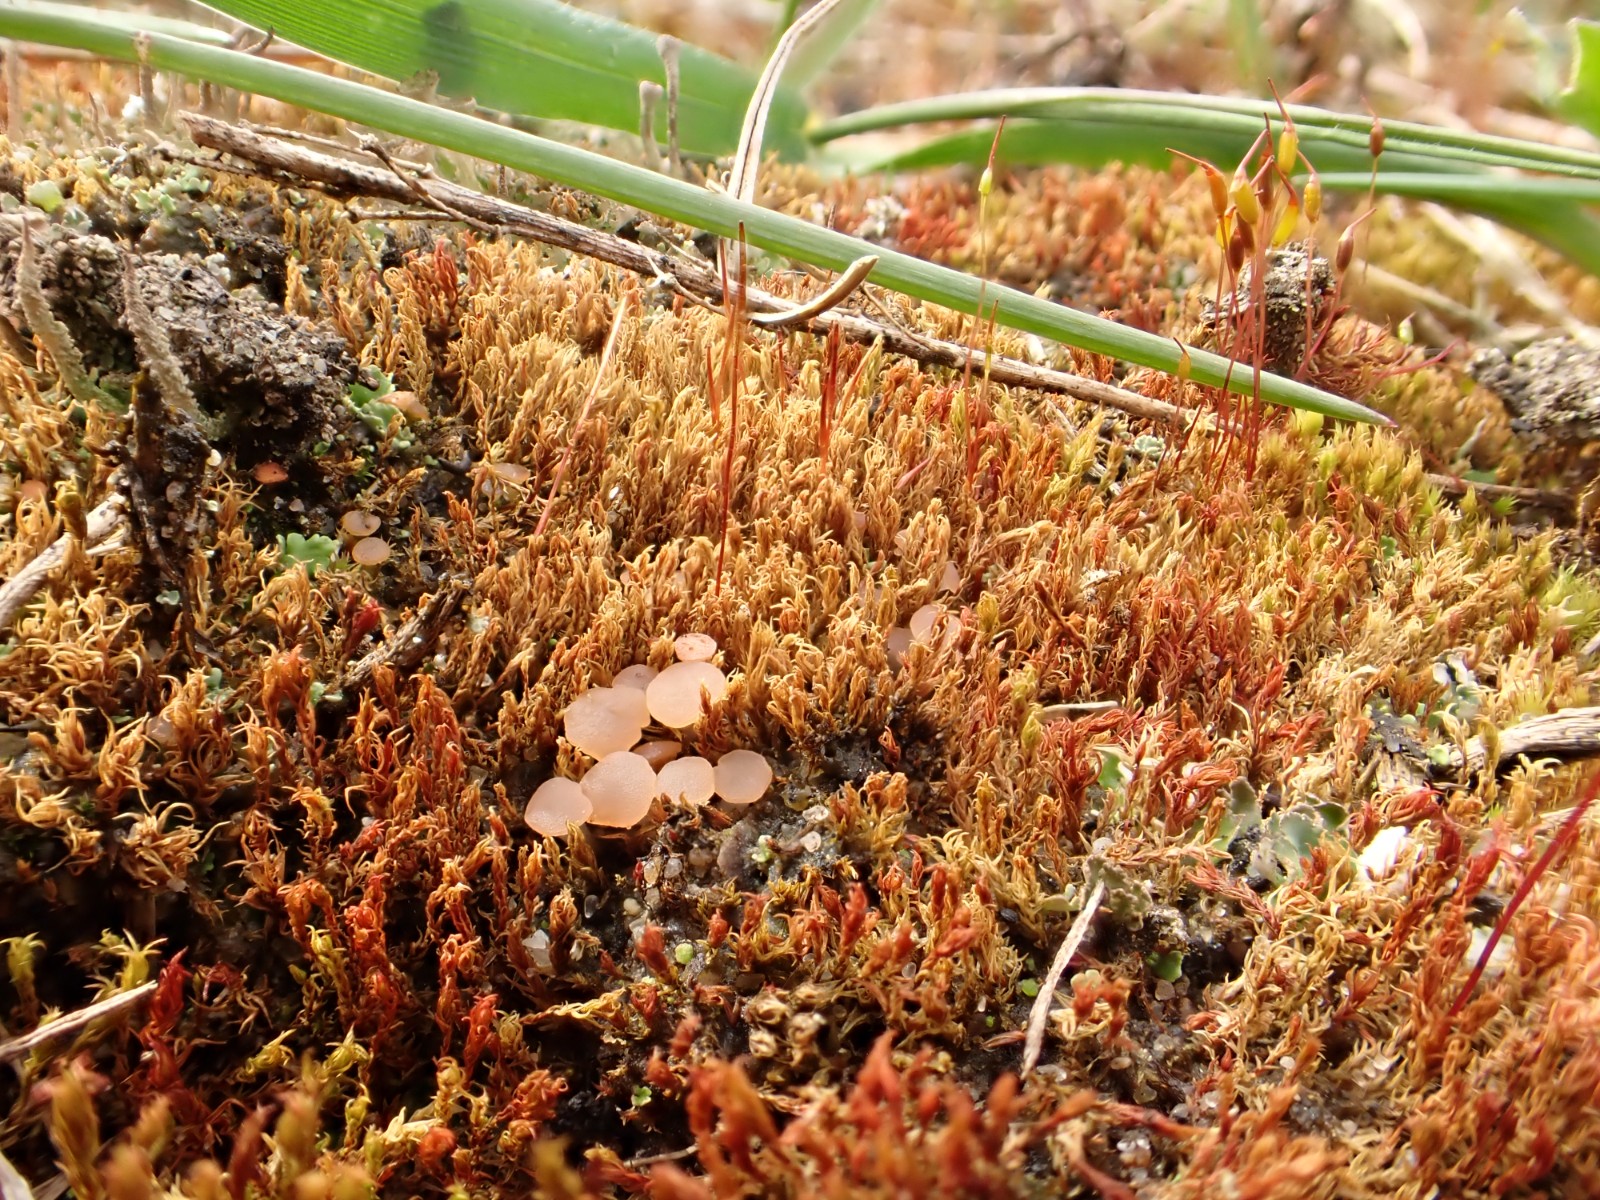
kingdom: Fungi
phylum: Ascomycota
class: Leotiomycetes
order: Helotiales
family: Hyaloscyphaceae
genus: Roseodiscus
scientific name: Roseodiscus formosus
